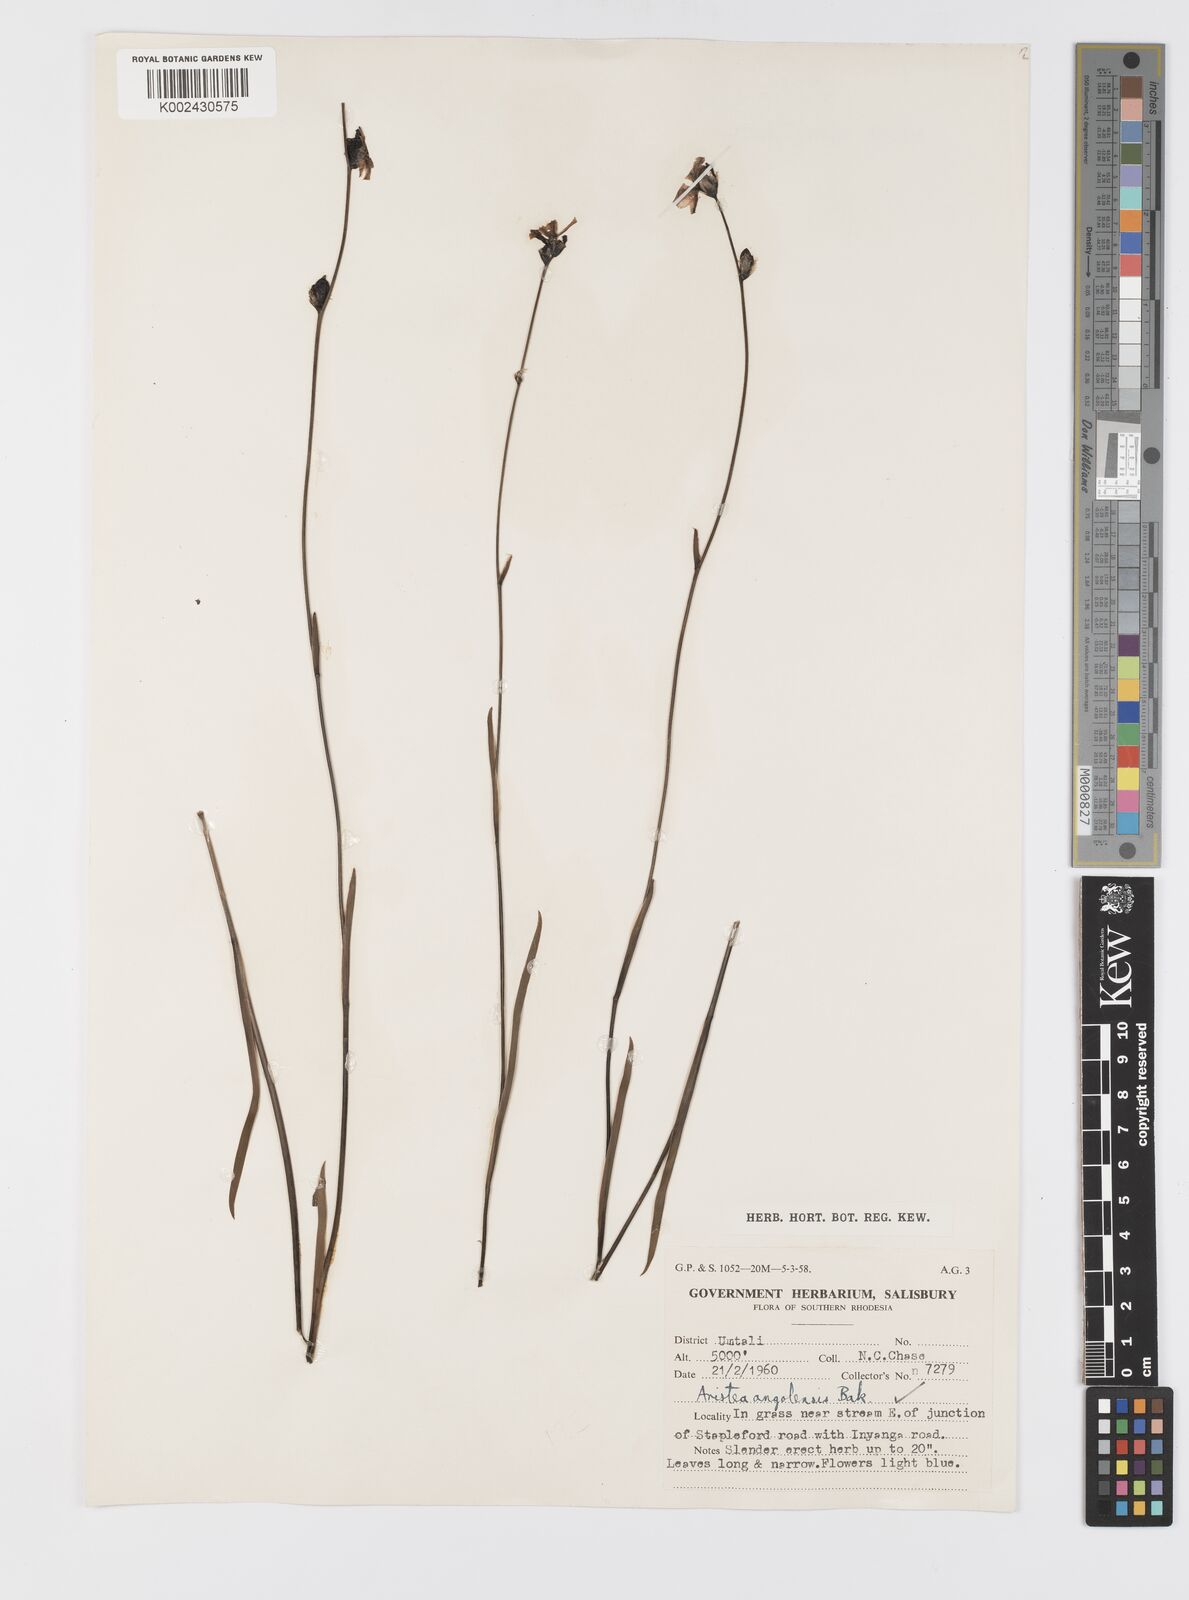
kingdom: Plantae
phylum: Tracheophyta
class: Liliopsida
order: Asparagales
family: Iridaceae
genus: Aristea
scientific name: Aristea angolensis
